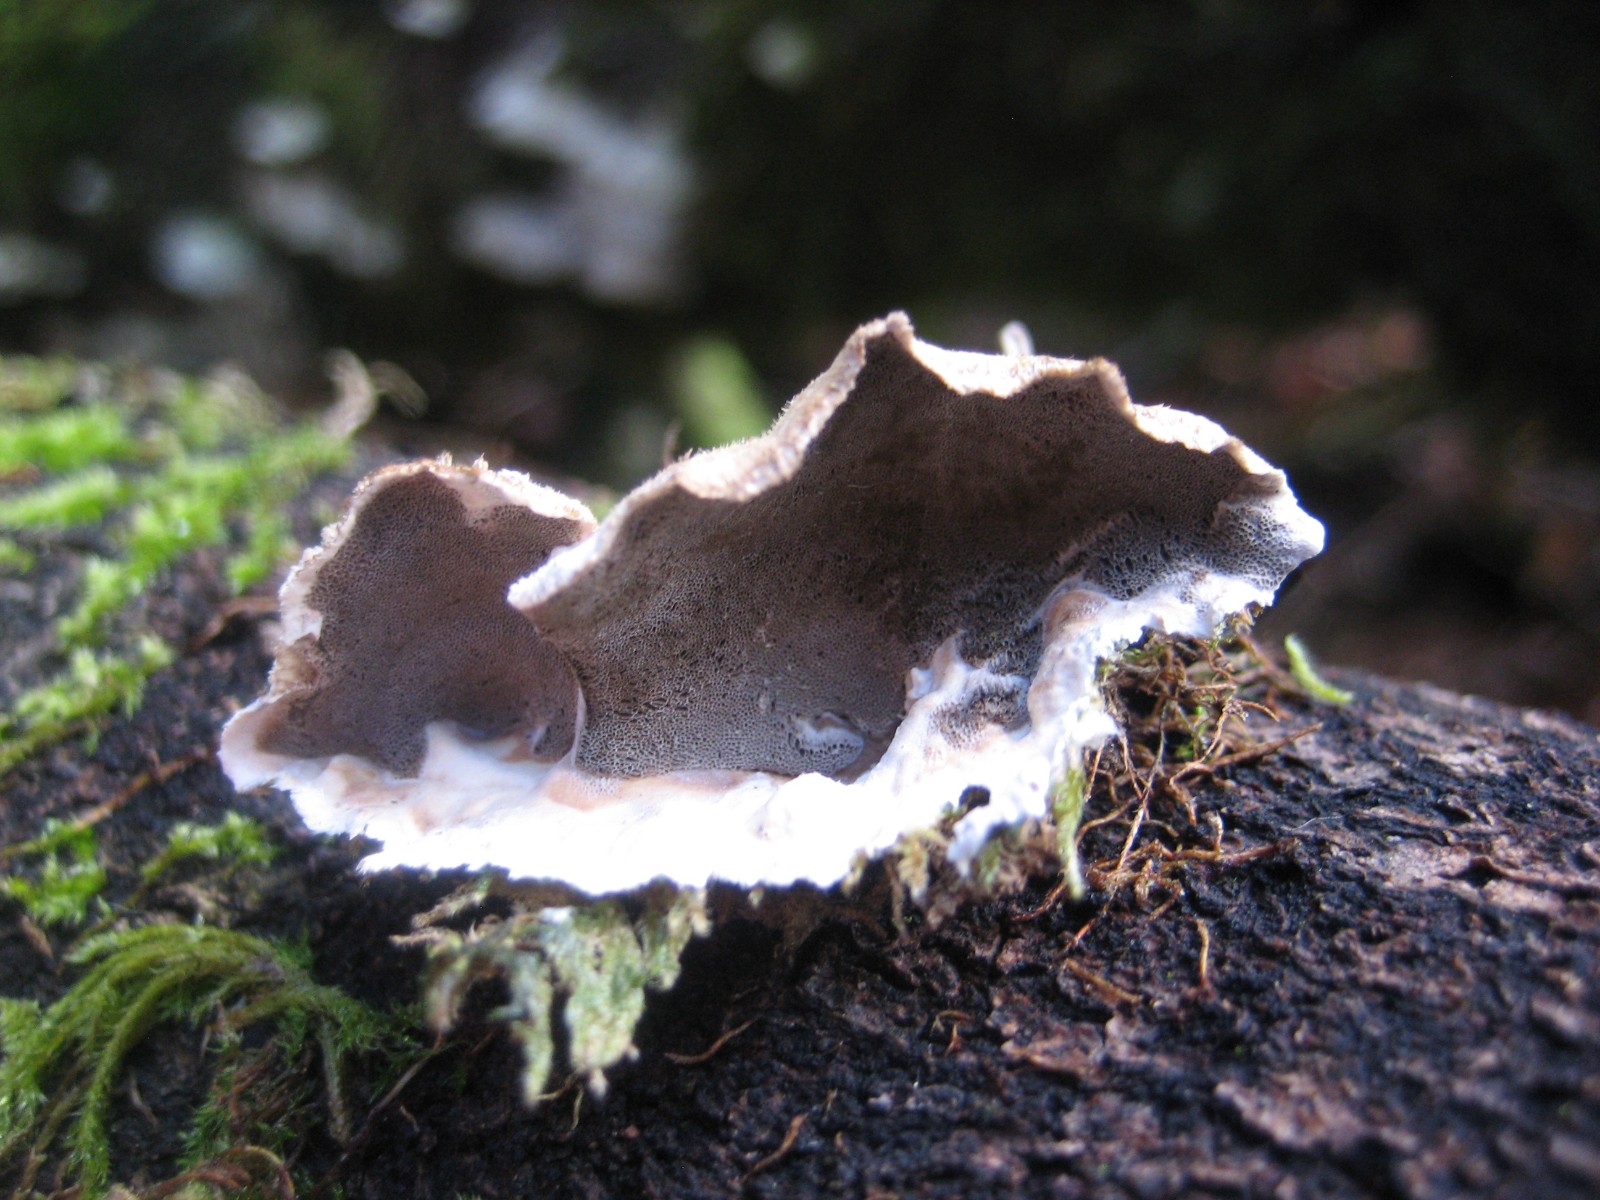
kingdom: Fungi
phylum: Basidiomycota
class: Agaricomycetes
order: Polyporales
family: Phanerochaetaceae
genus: Bjerkandera
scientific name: Bjerkandera adusta
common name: sveden sodporesvamp
